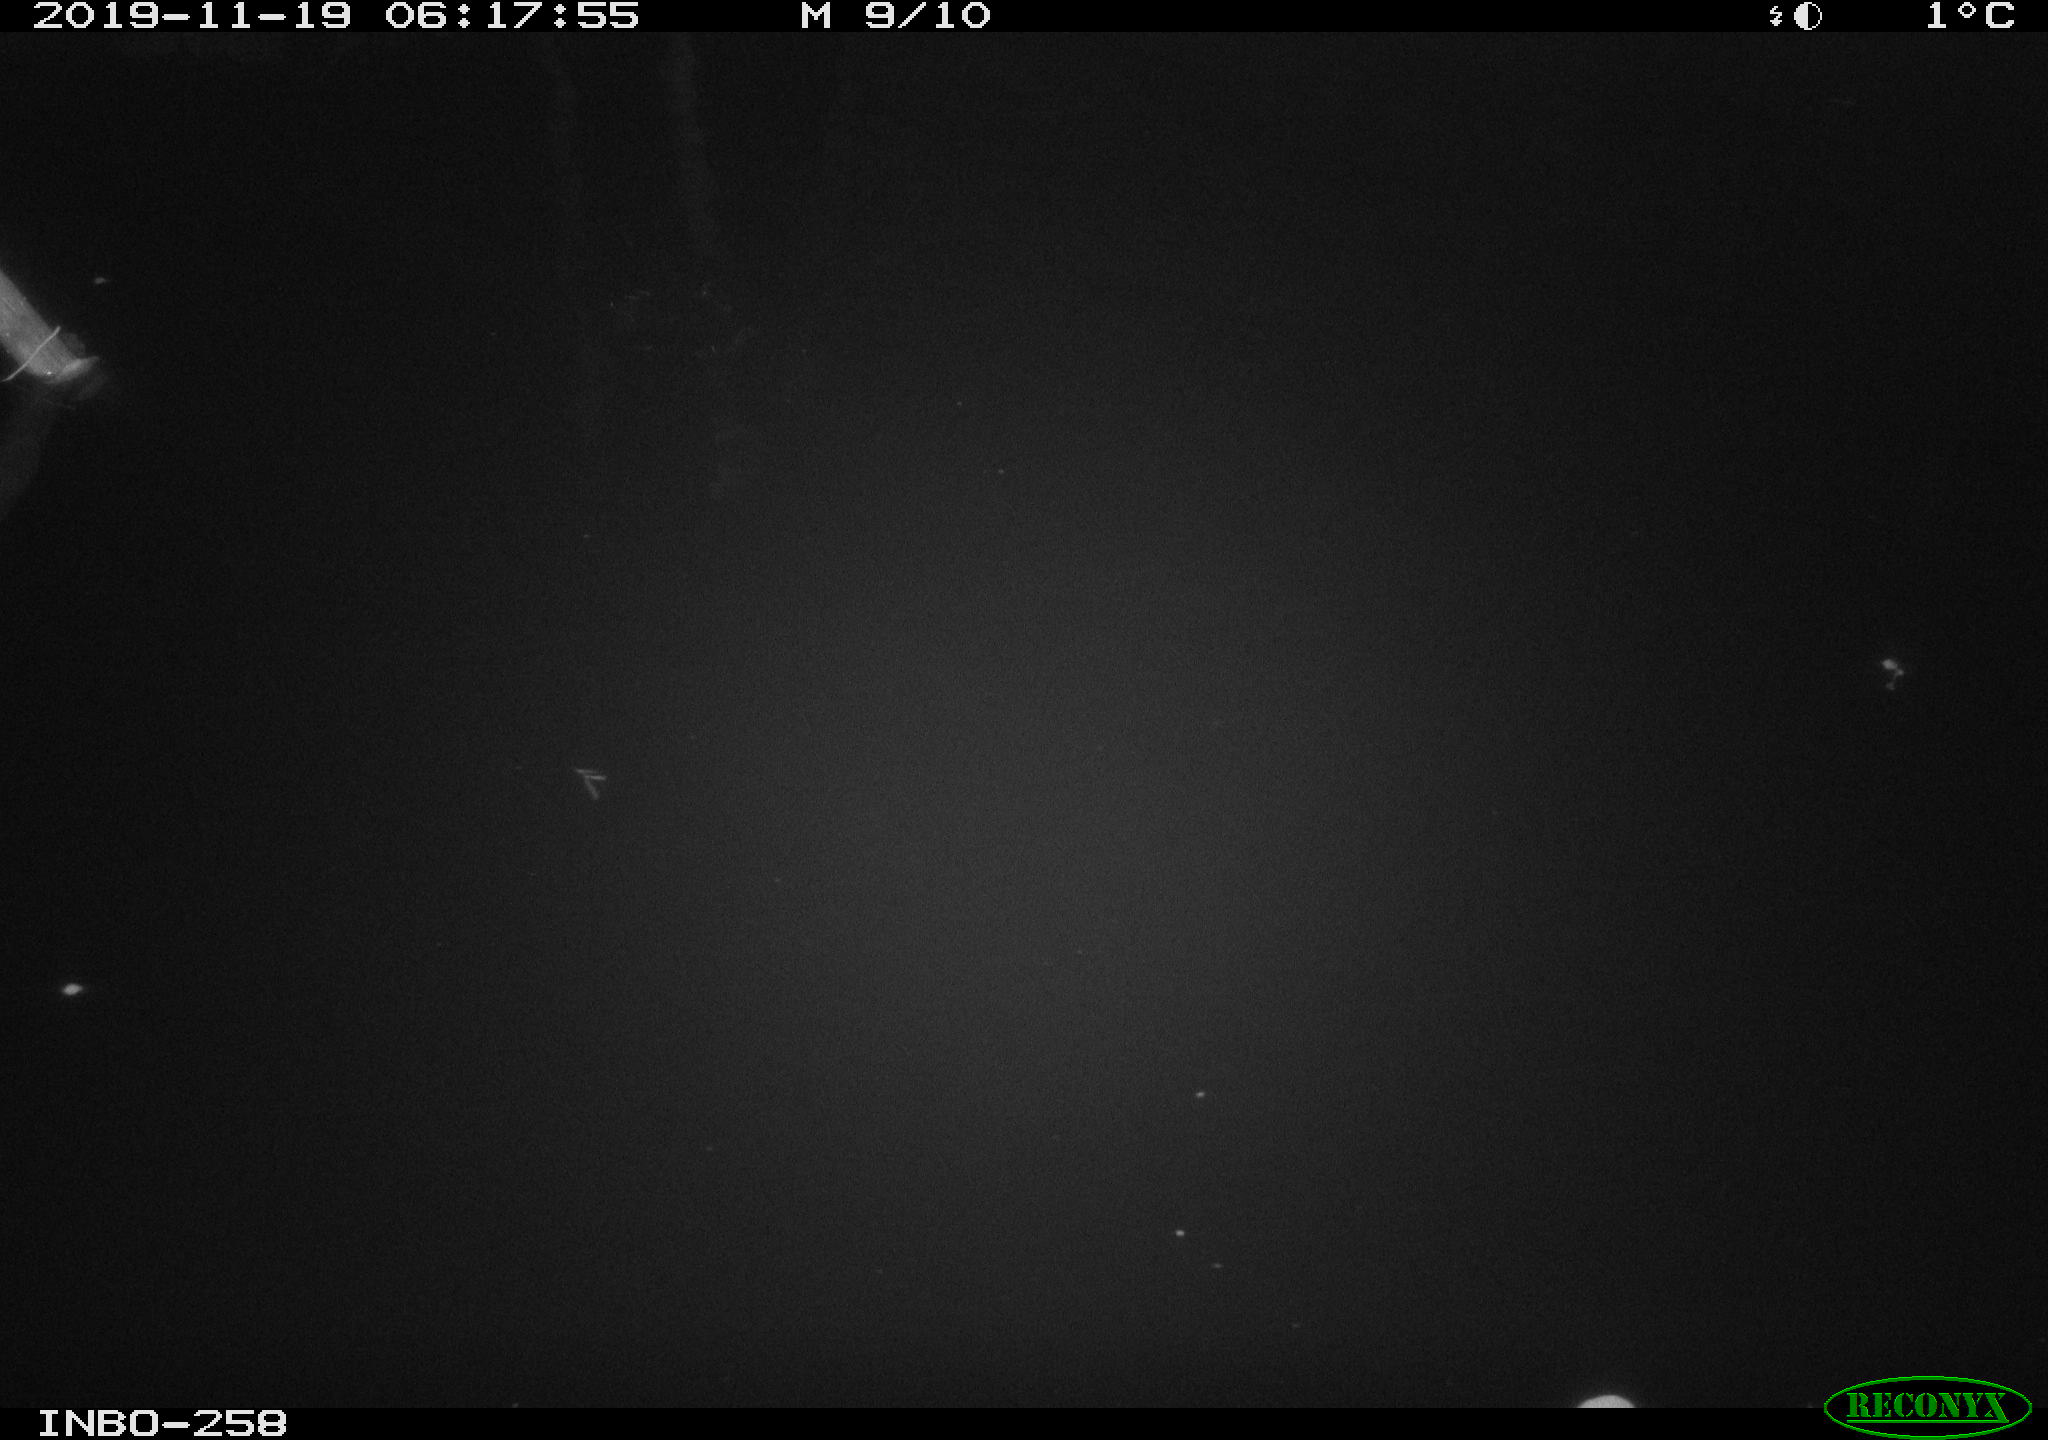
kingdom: Animalia
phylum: Chordata
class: Aves
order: Anseriformes
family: Anatidae
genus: Anas
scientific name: Anas platyrhynchos
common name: Mallard
